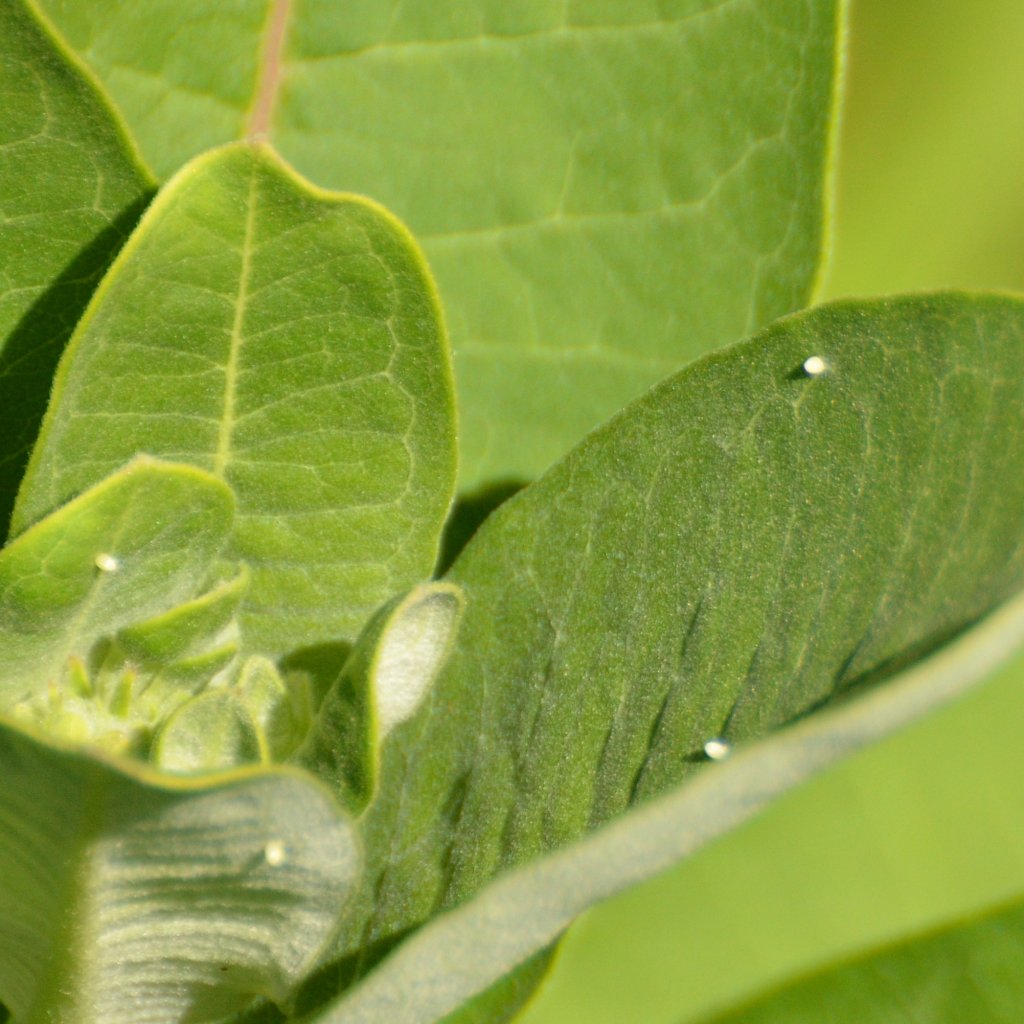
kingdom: Animalia
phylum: Arthropoda
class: Insecta
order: Lepidoptera
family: Nymphalidae
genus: Danaus
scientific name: Danaus plexippus
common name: Monarch
